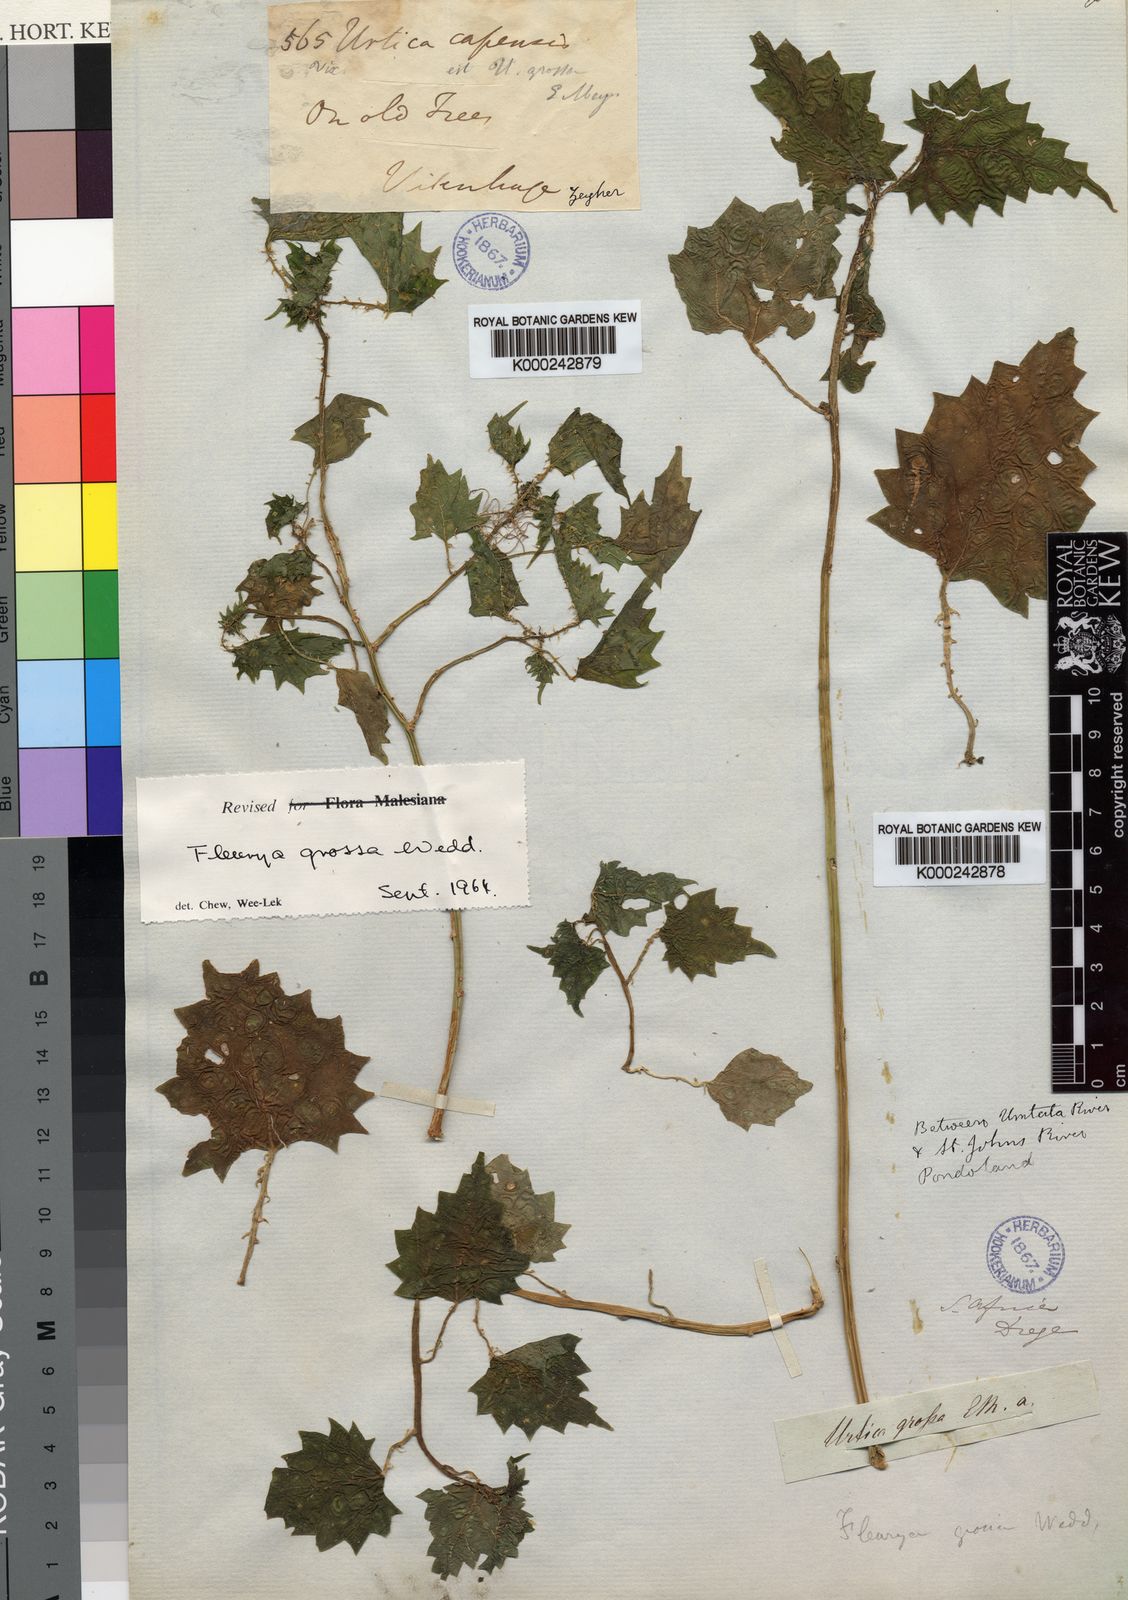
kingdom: Plantae
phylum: Tracheophyta
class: Magnoliopsida
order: Rosales
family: Urticaceae
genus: Laportea
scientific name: Laportea grossa
